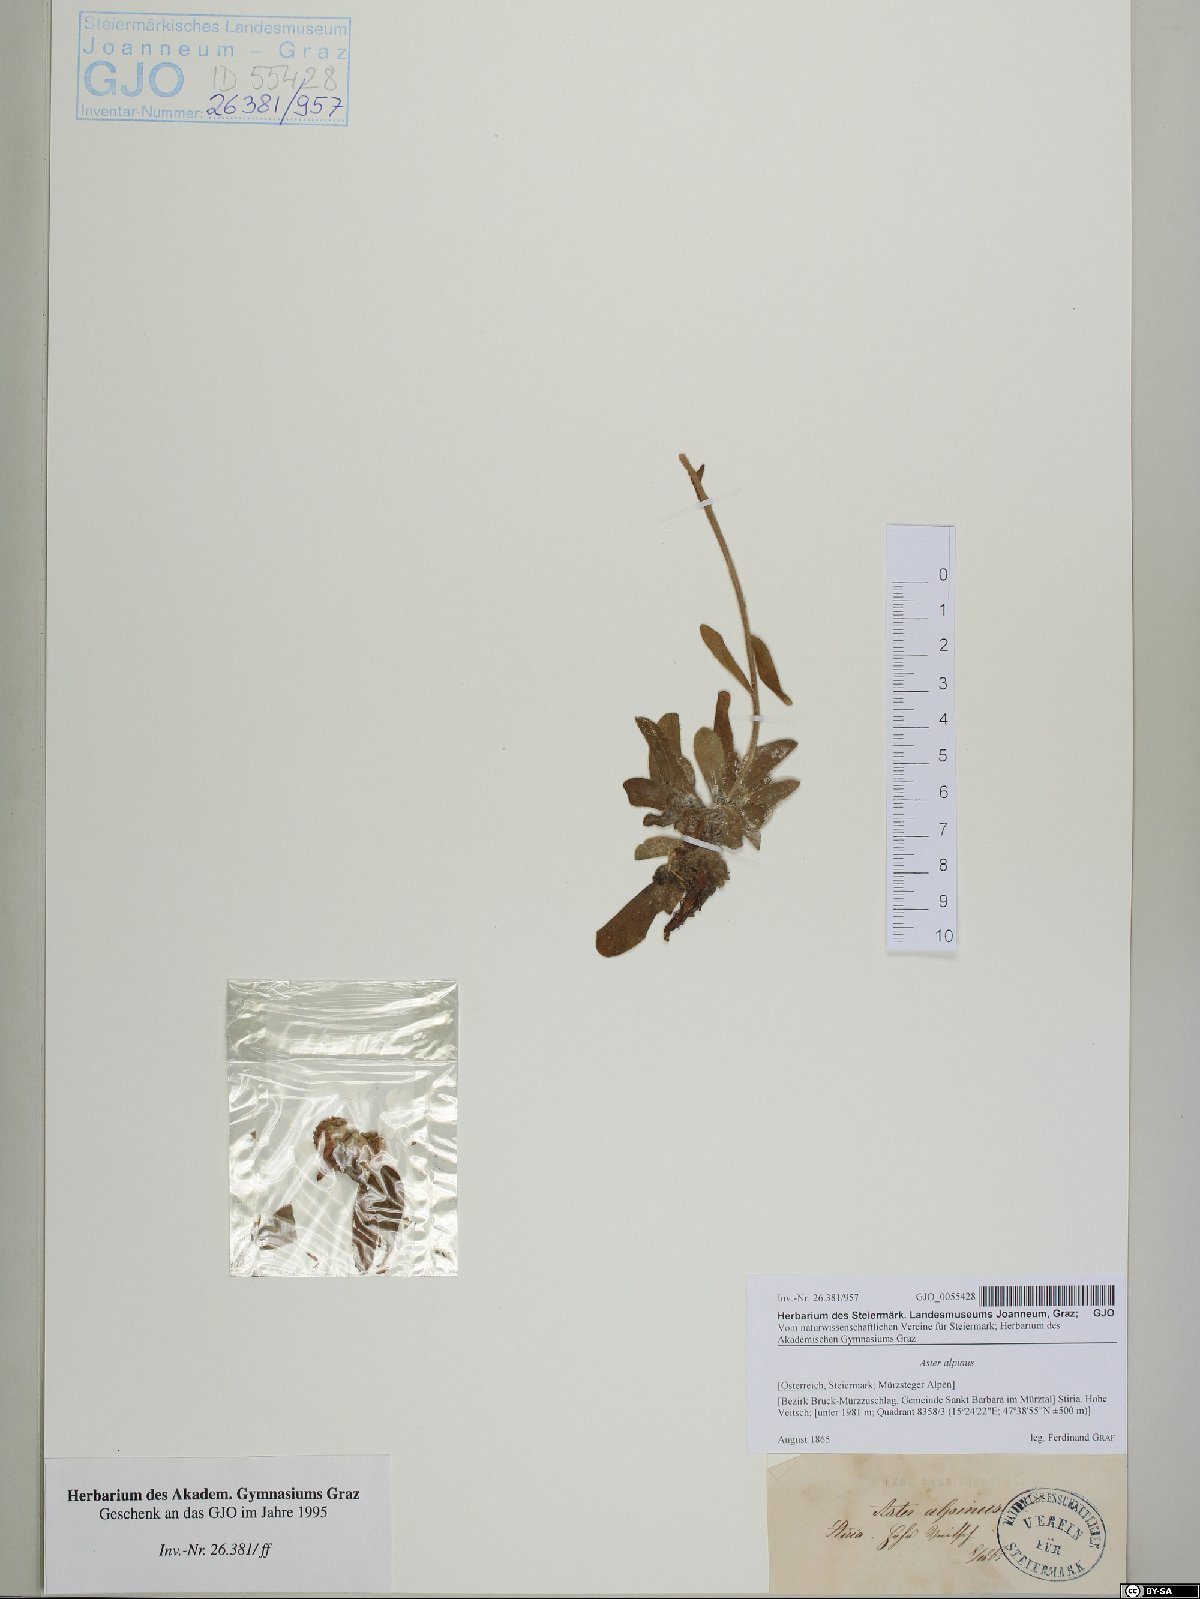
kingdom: Plantae
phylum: Tracheophyta
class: Magnoliopsida
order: Asterales
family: Asteraceae
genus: Aster
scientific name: Aster alpinus
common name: Alpine aster
